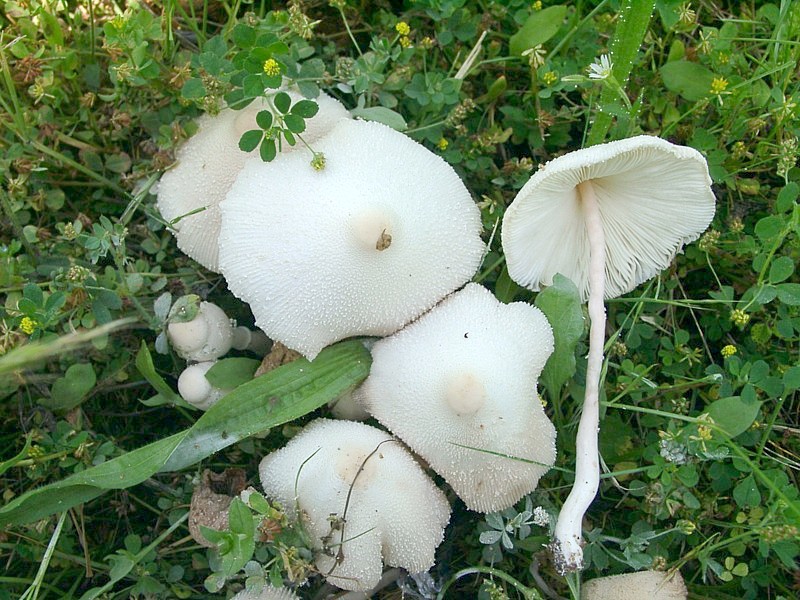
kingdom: Fungi
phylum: Basidiomycota
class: Agaricomycetes
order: Agaricales
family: Agaricaceae
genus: Leucocoprinus
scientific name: Leucocoprinus cepistipes
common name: Onion-stalk parasol
